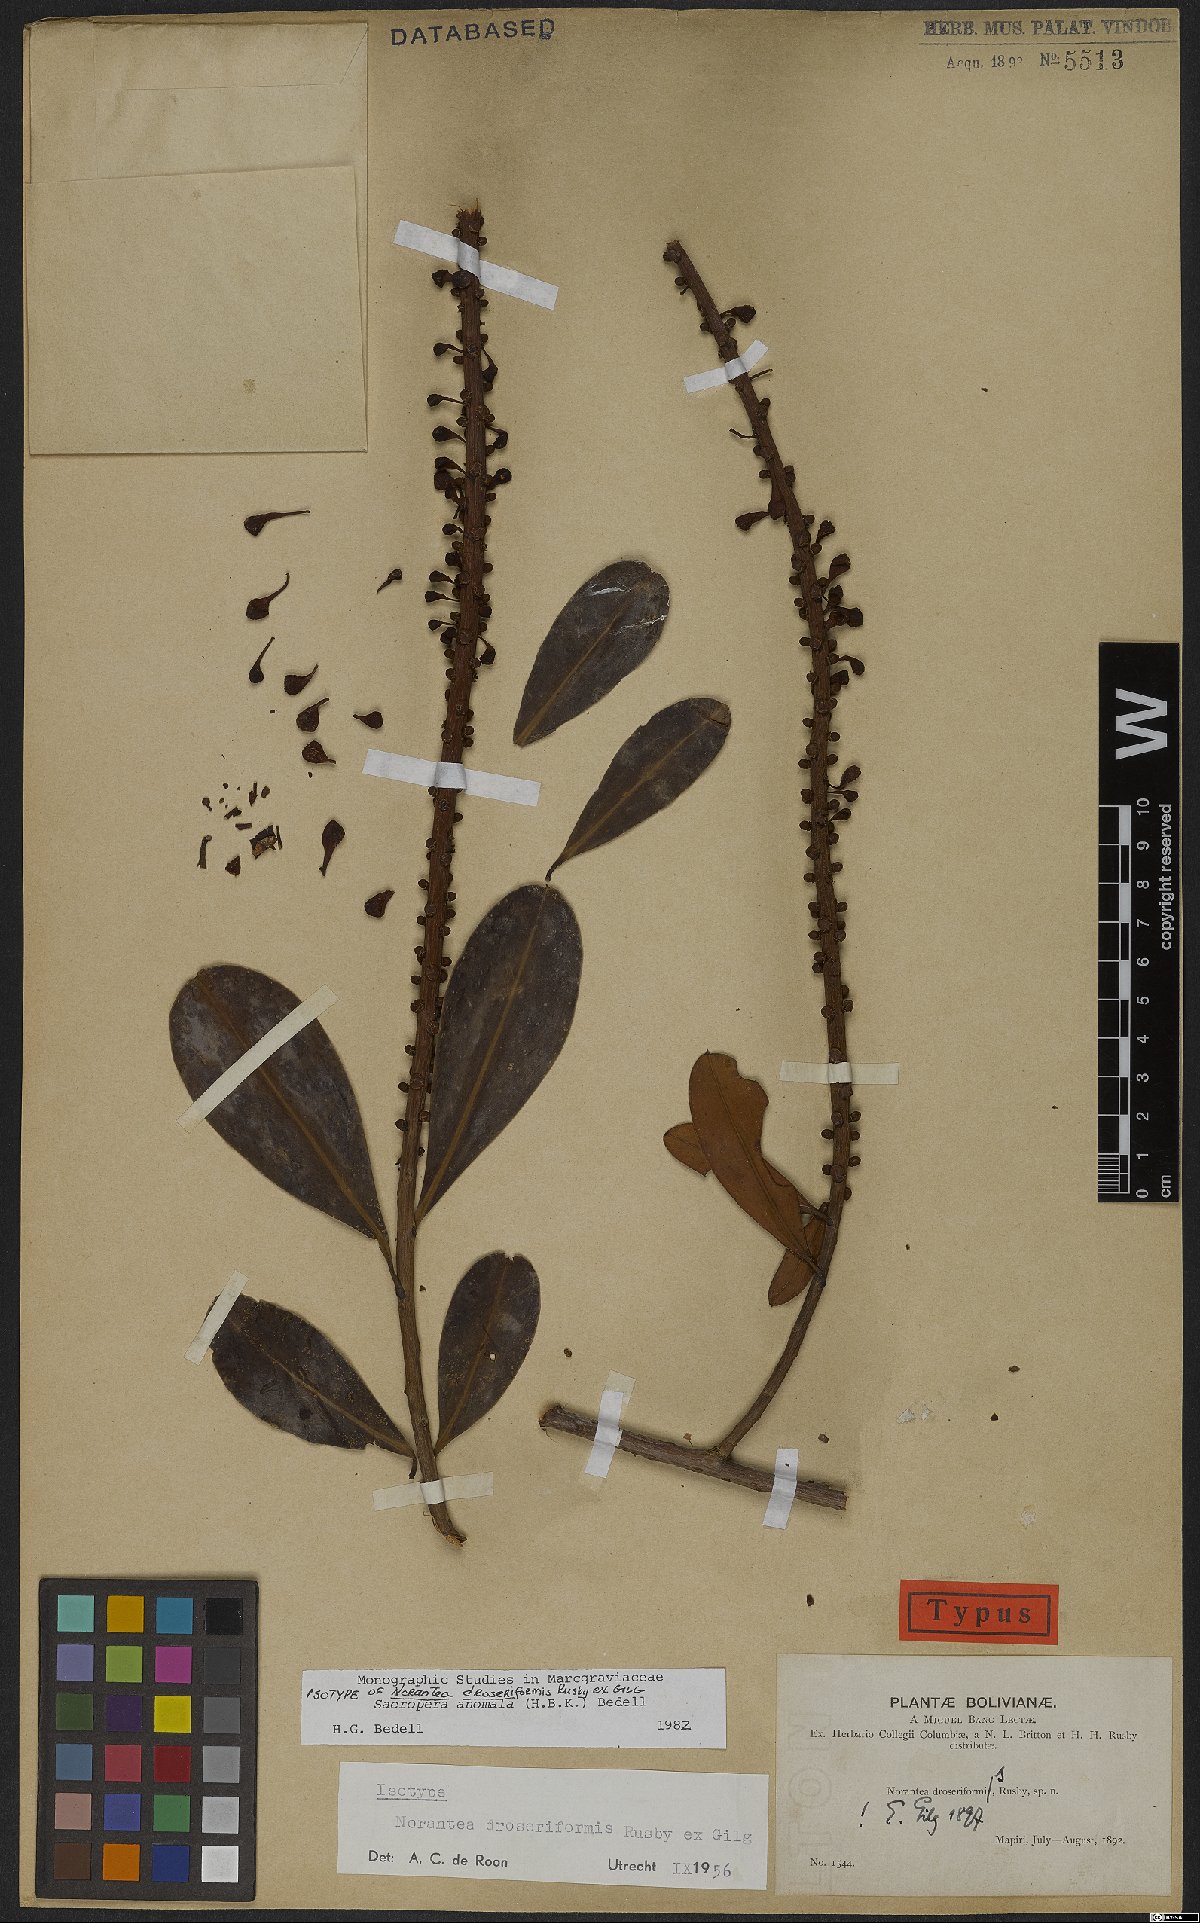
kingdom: Plantae
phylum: Tracheophyta
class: Magnoliopsida
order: Ericales
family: Marcgraviaceae
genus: Sarcopera
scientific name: Sarcopera anomala
